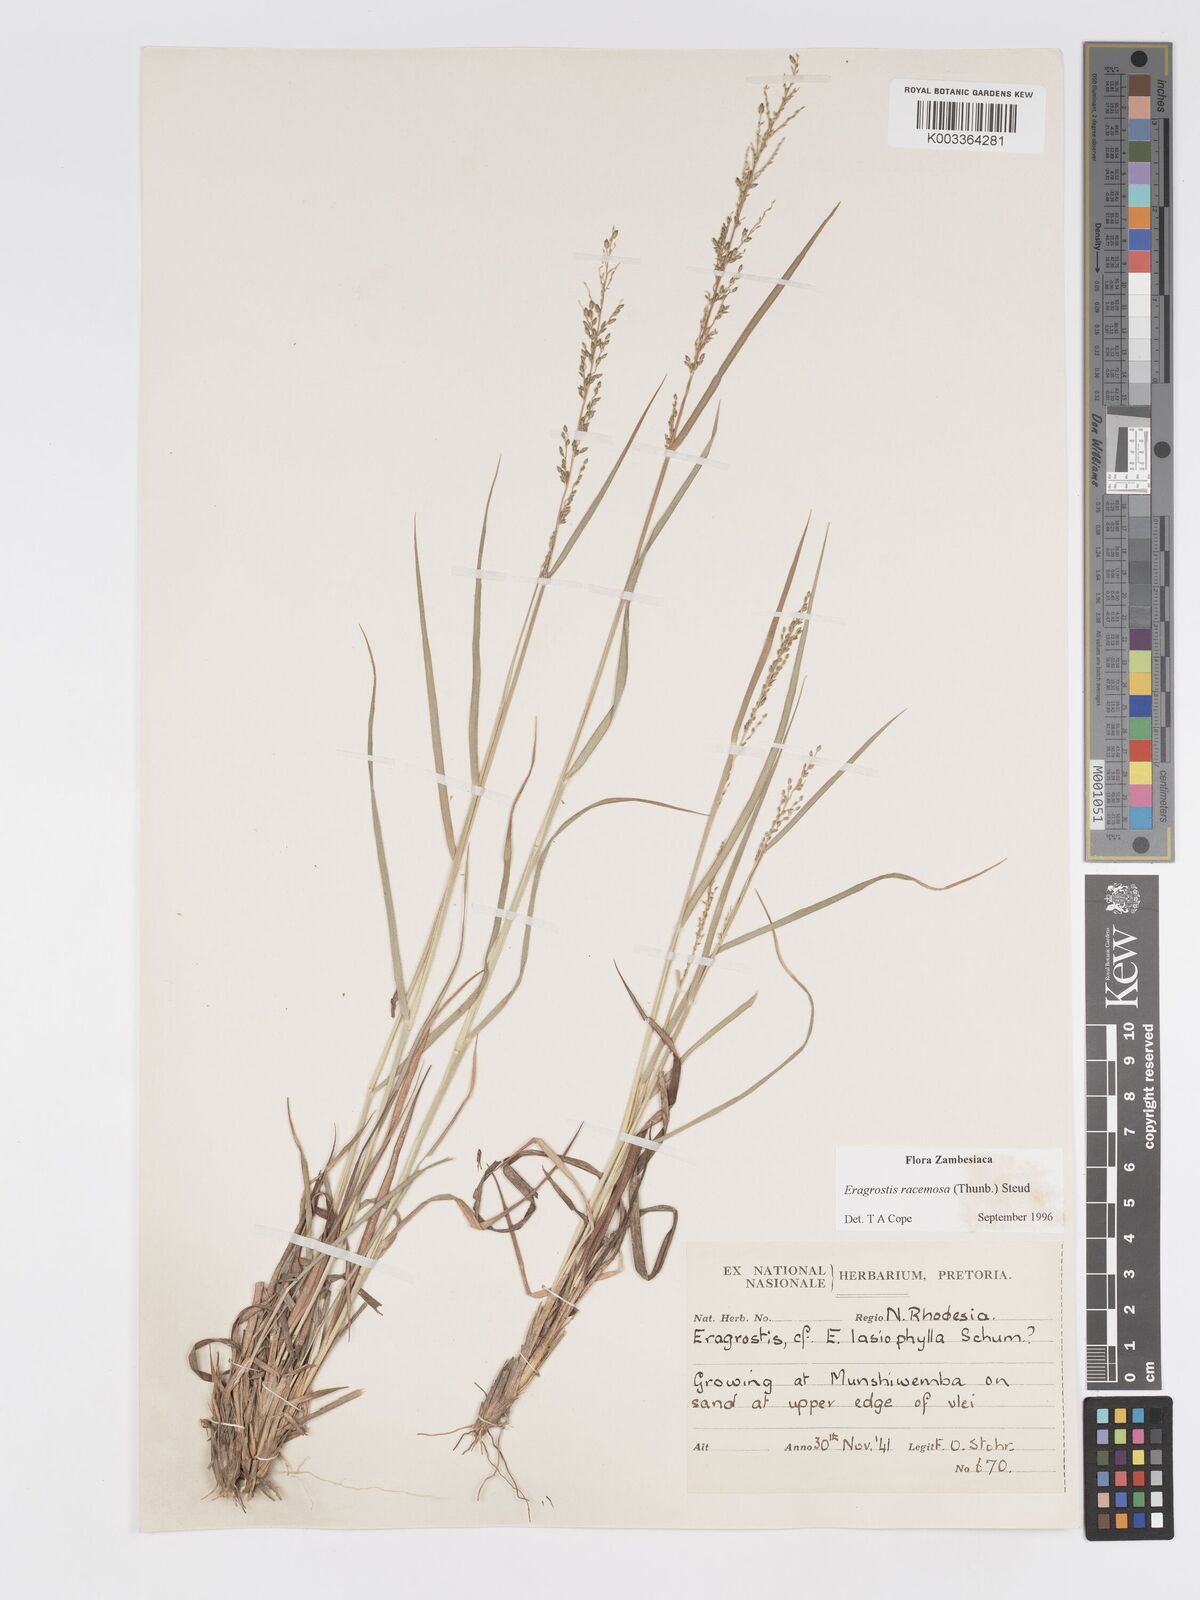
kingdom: Plantae
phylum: Tracheophyta
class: Liliopsida
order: Poales
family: Poaceae
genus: Eragrostis
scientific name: Eragrostis racemosa
